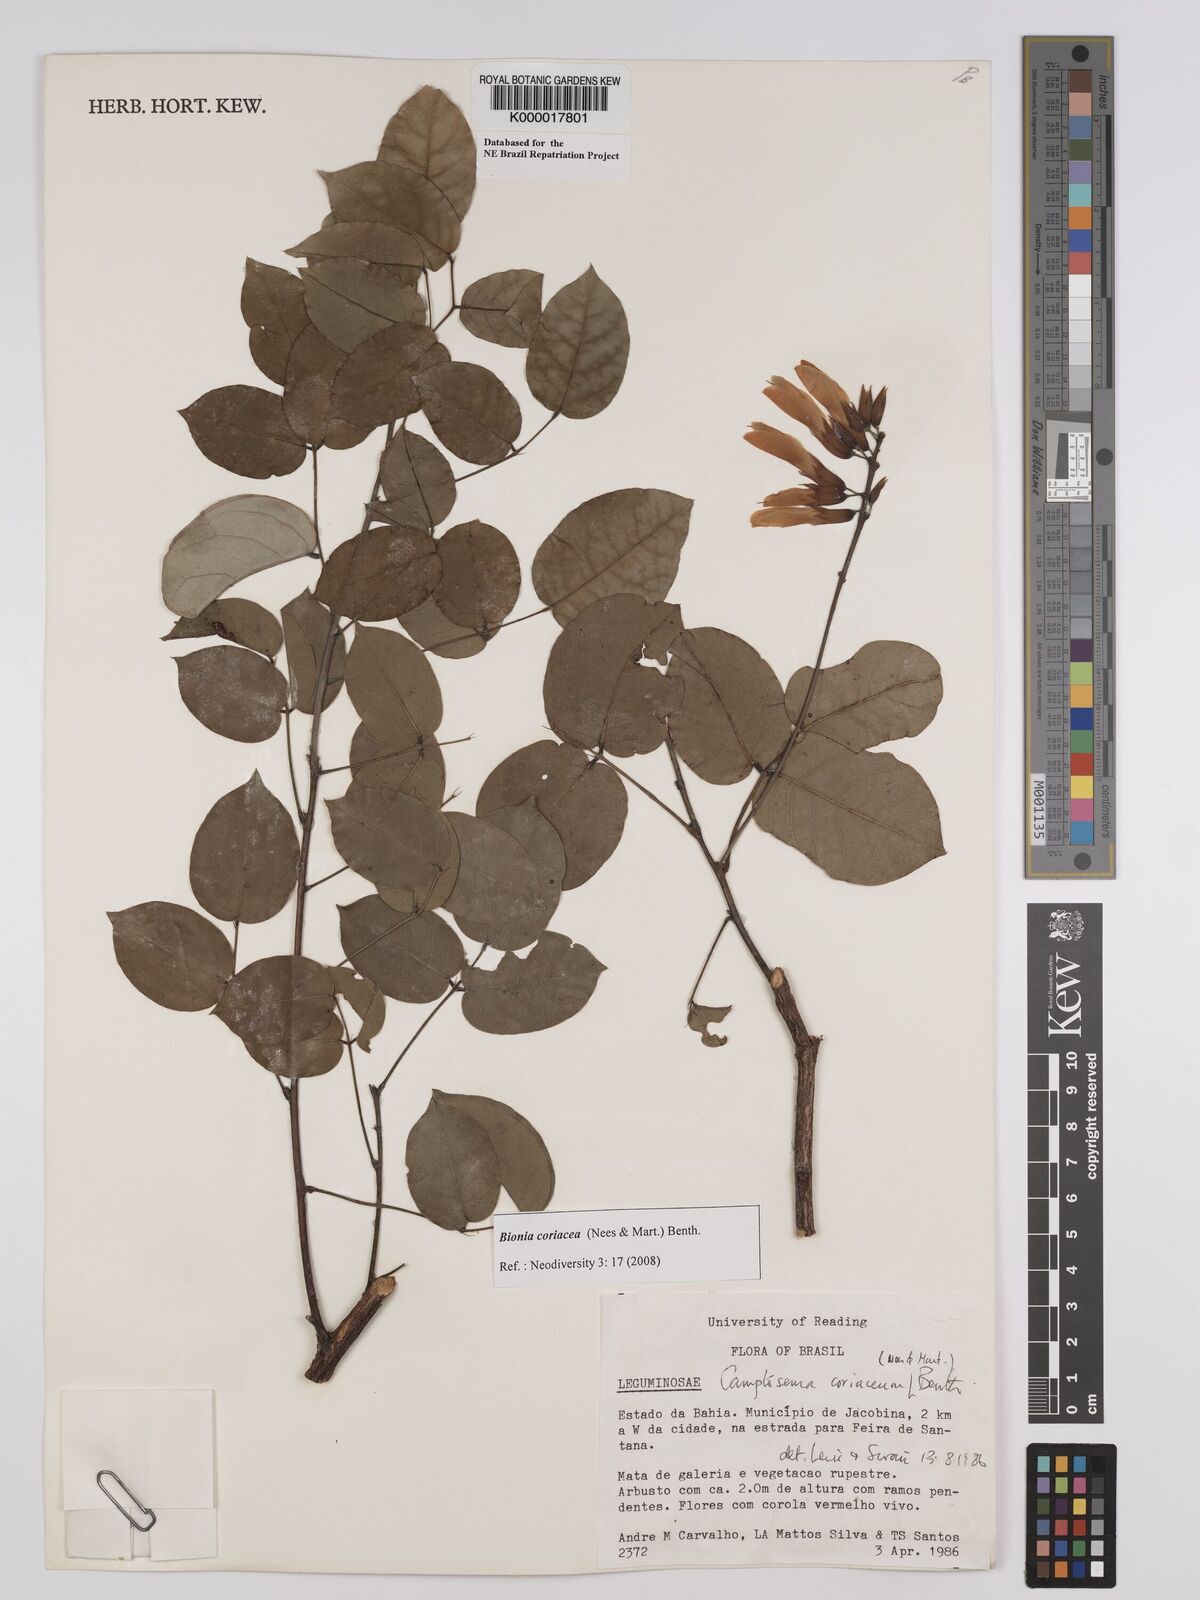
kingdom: Plantae
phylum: Tracheophyta
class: Magnoliopsida
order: Fabales
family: Fabaceae
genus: Camptosema
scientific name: Camptosema coriaceum
